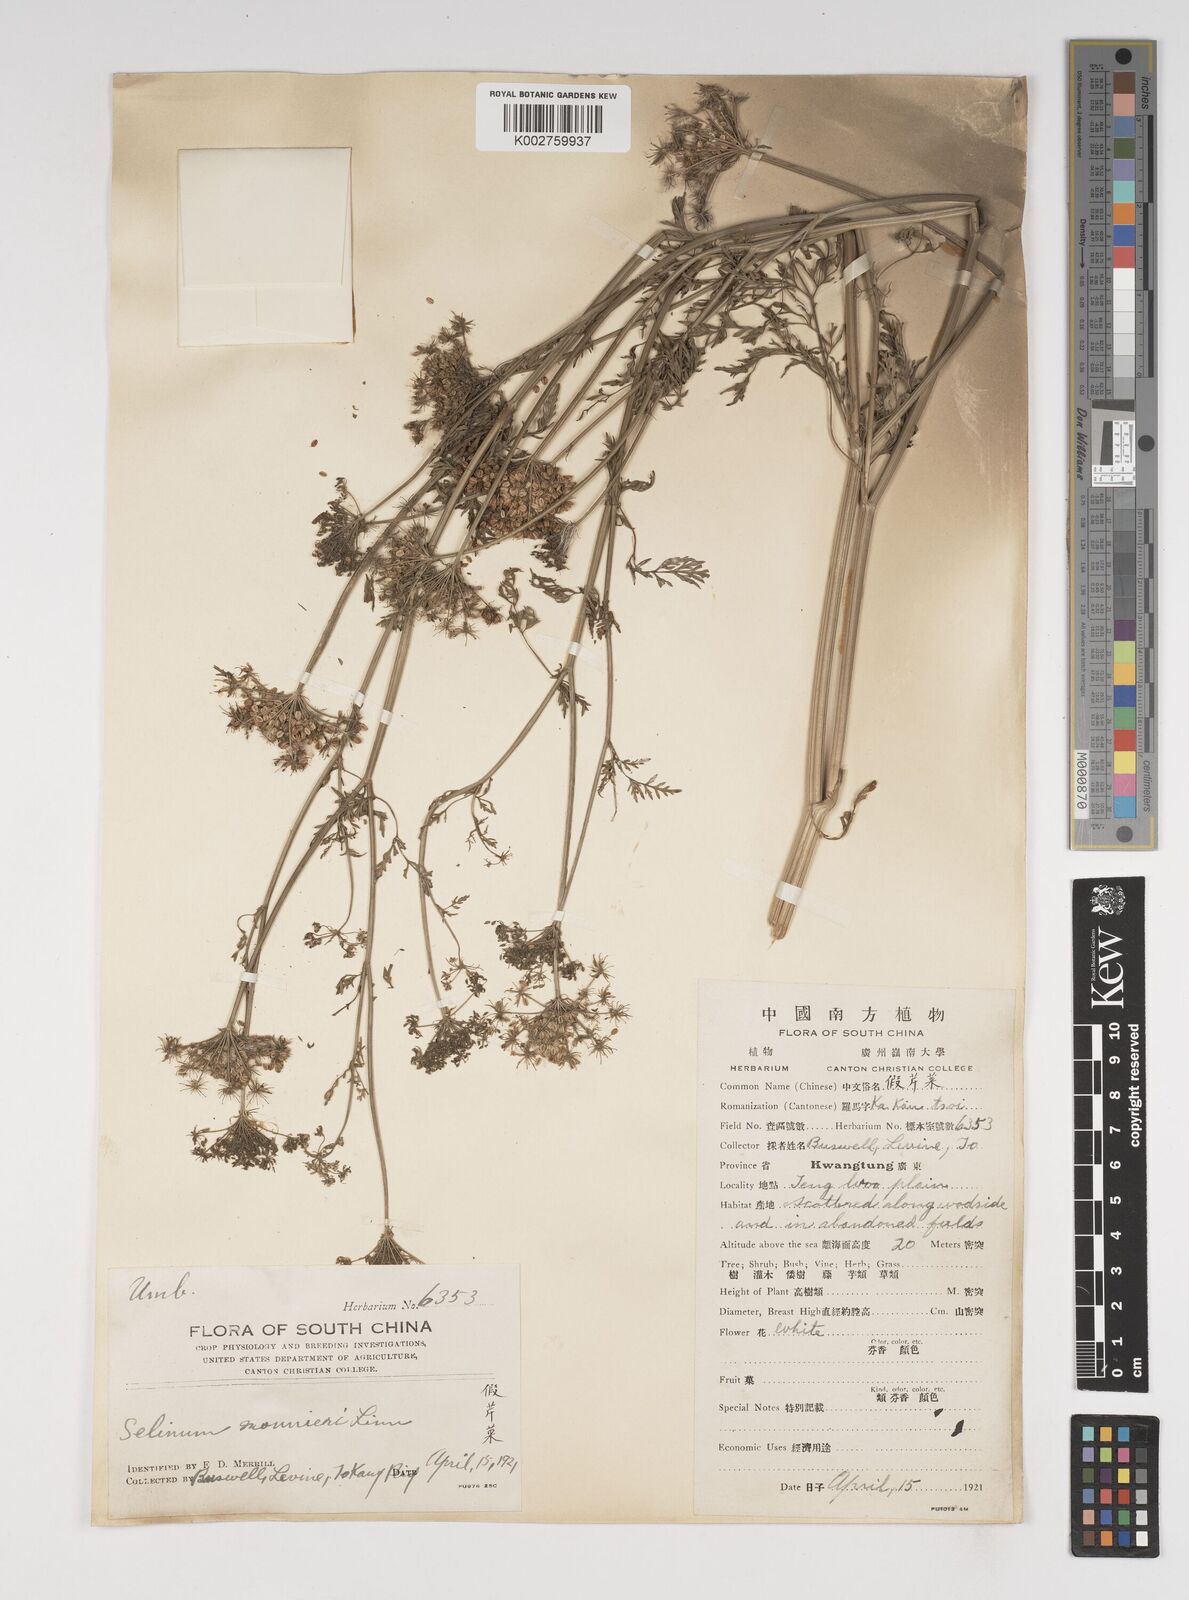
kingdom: Plantae
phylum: Tracheophyta
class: Magnoliopsida
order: Apiales
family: Apiaceae
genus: Cnidium
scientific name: Cnidium monnieri
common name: Monnier's snowparsley
